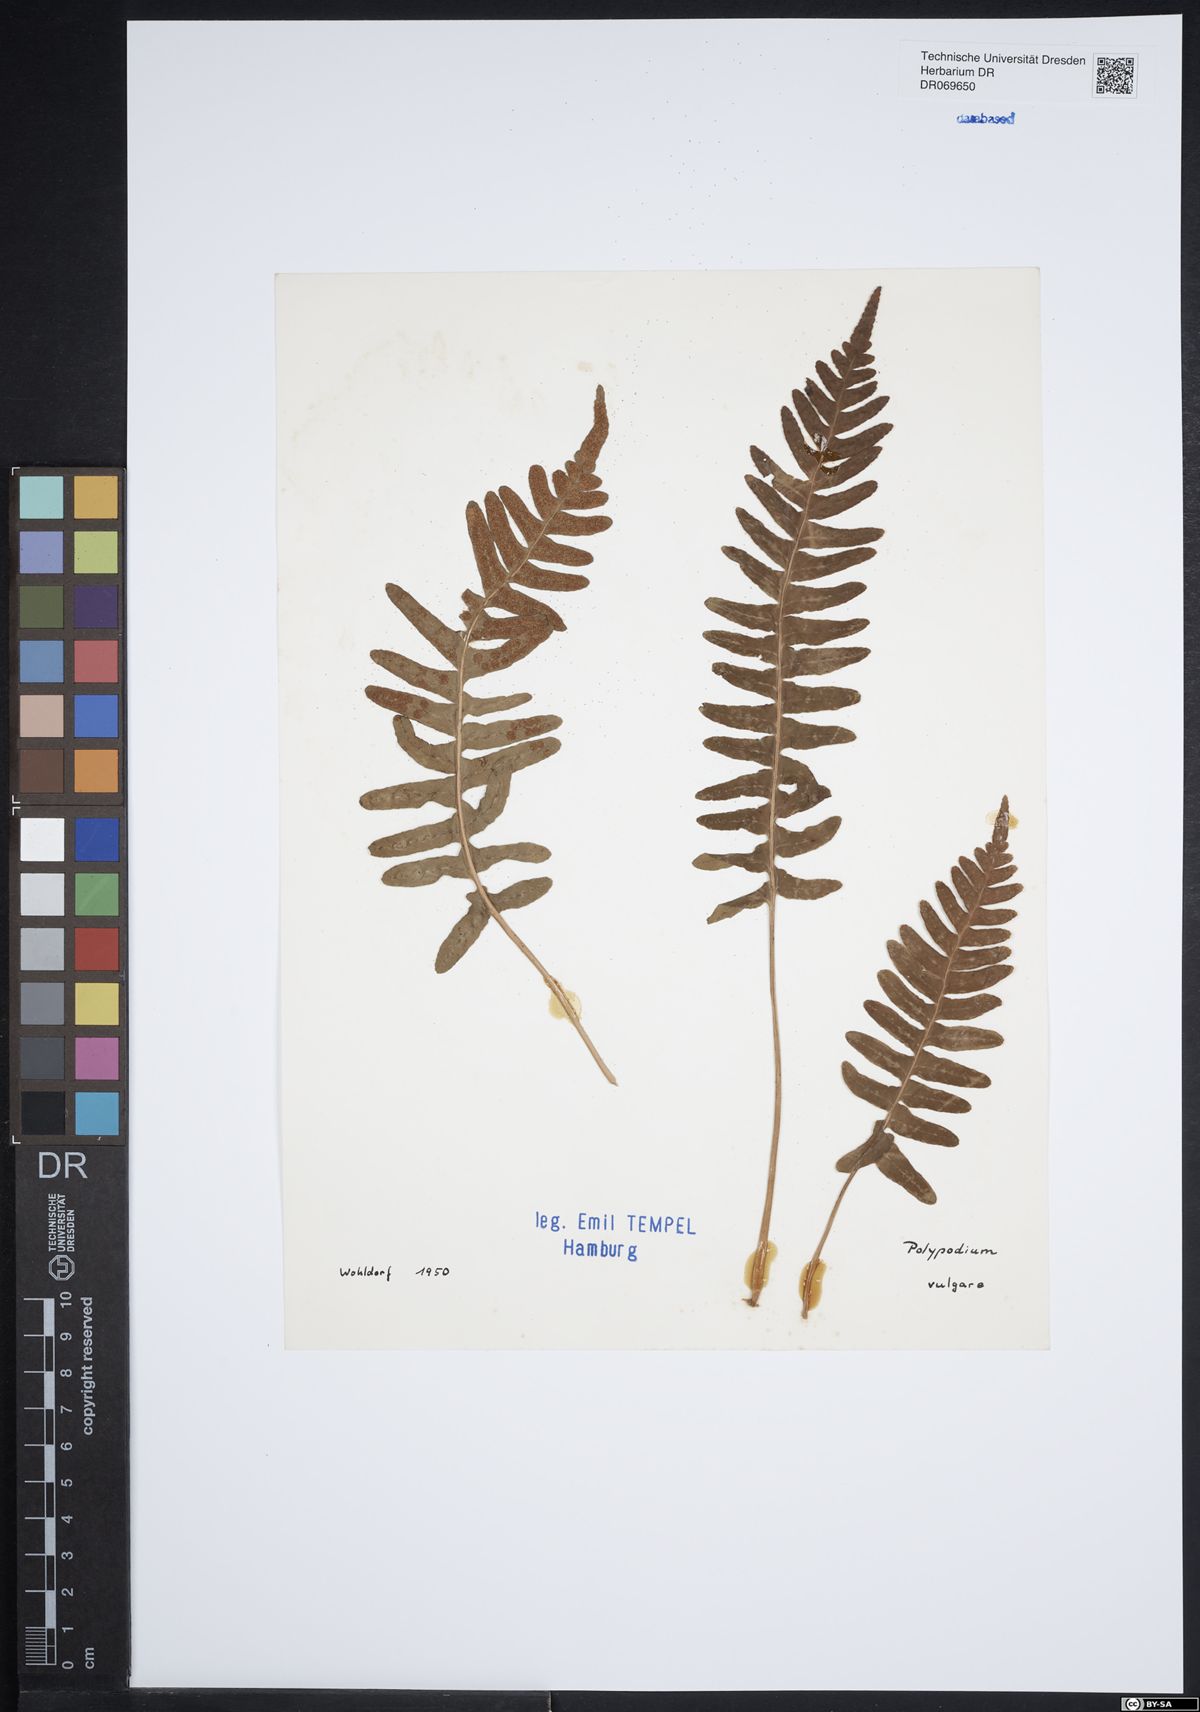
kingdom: Plantae
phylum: Tracheophyta
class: Polypodiopsida
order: Polypodiales
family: Polypodiaceae
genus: Polypodium
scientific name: Polypodium vulgare
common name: Common polypody
